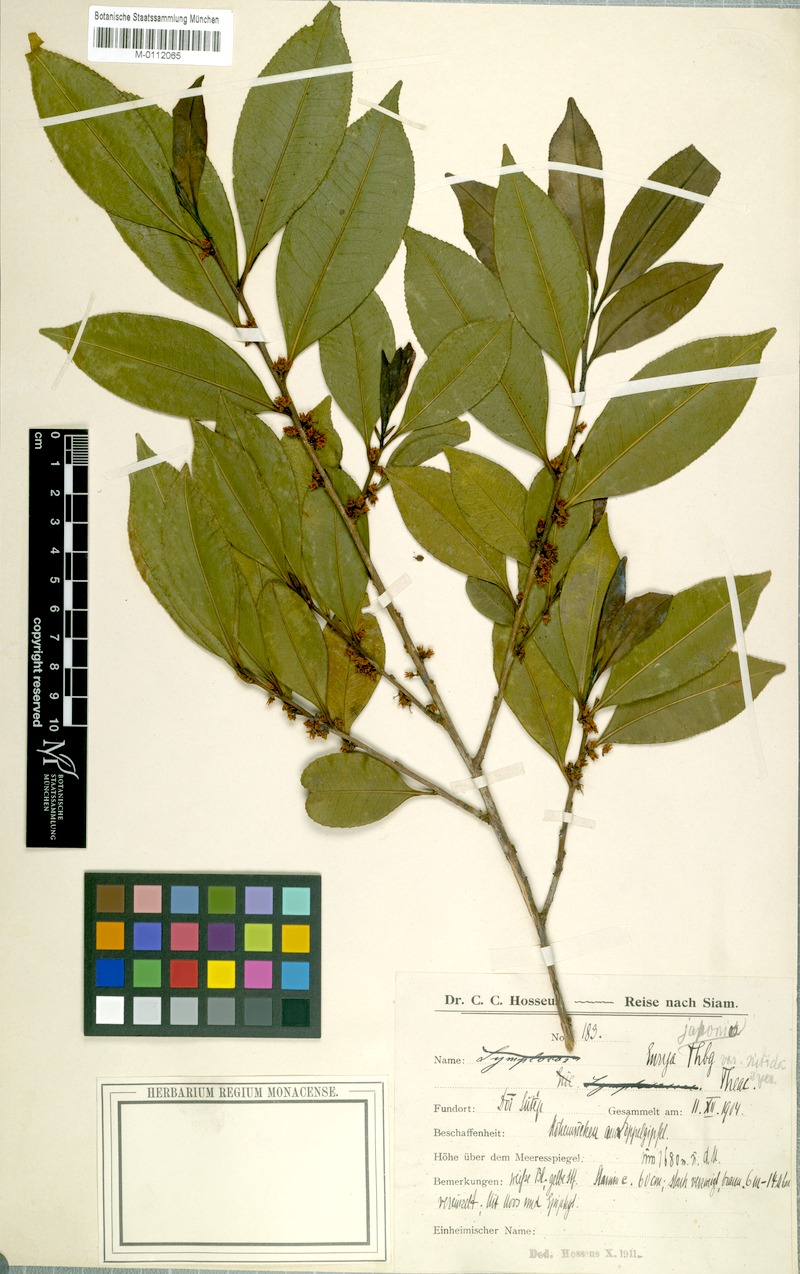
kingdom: Plantae
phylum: Tracheophyta
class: Magnoliopsida
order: Ericales
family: Pentaphylacaceae
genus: Eurya
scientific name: Eurya nitida
